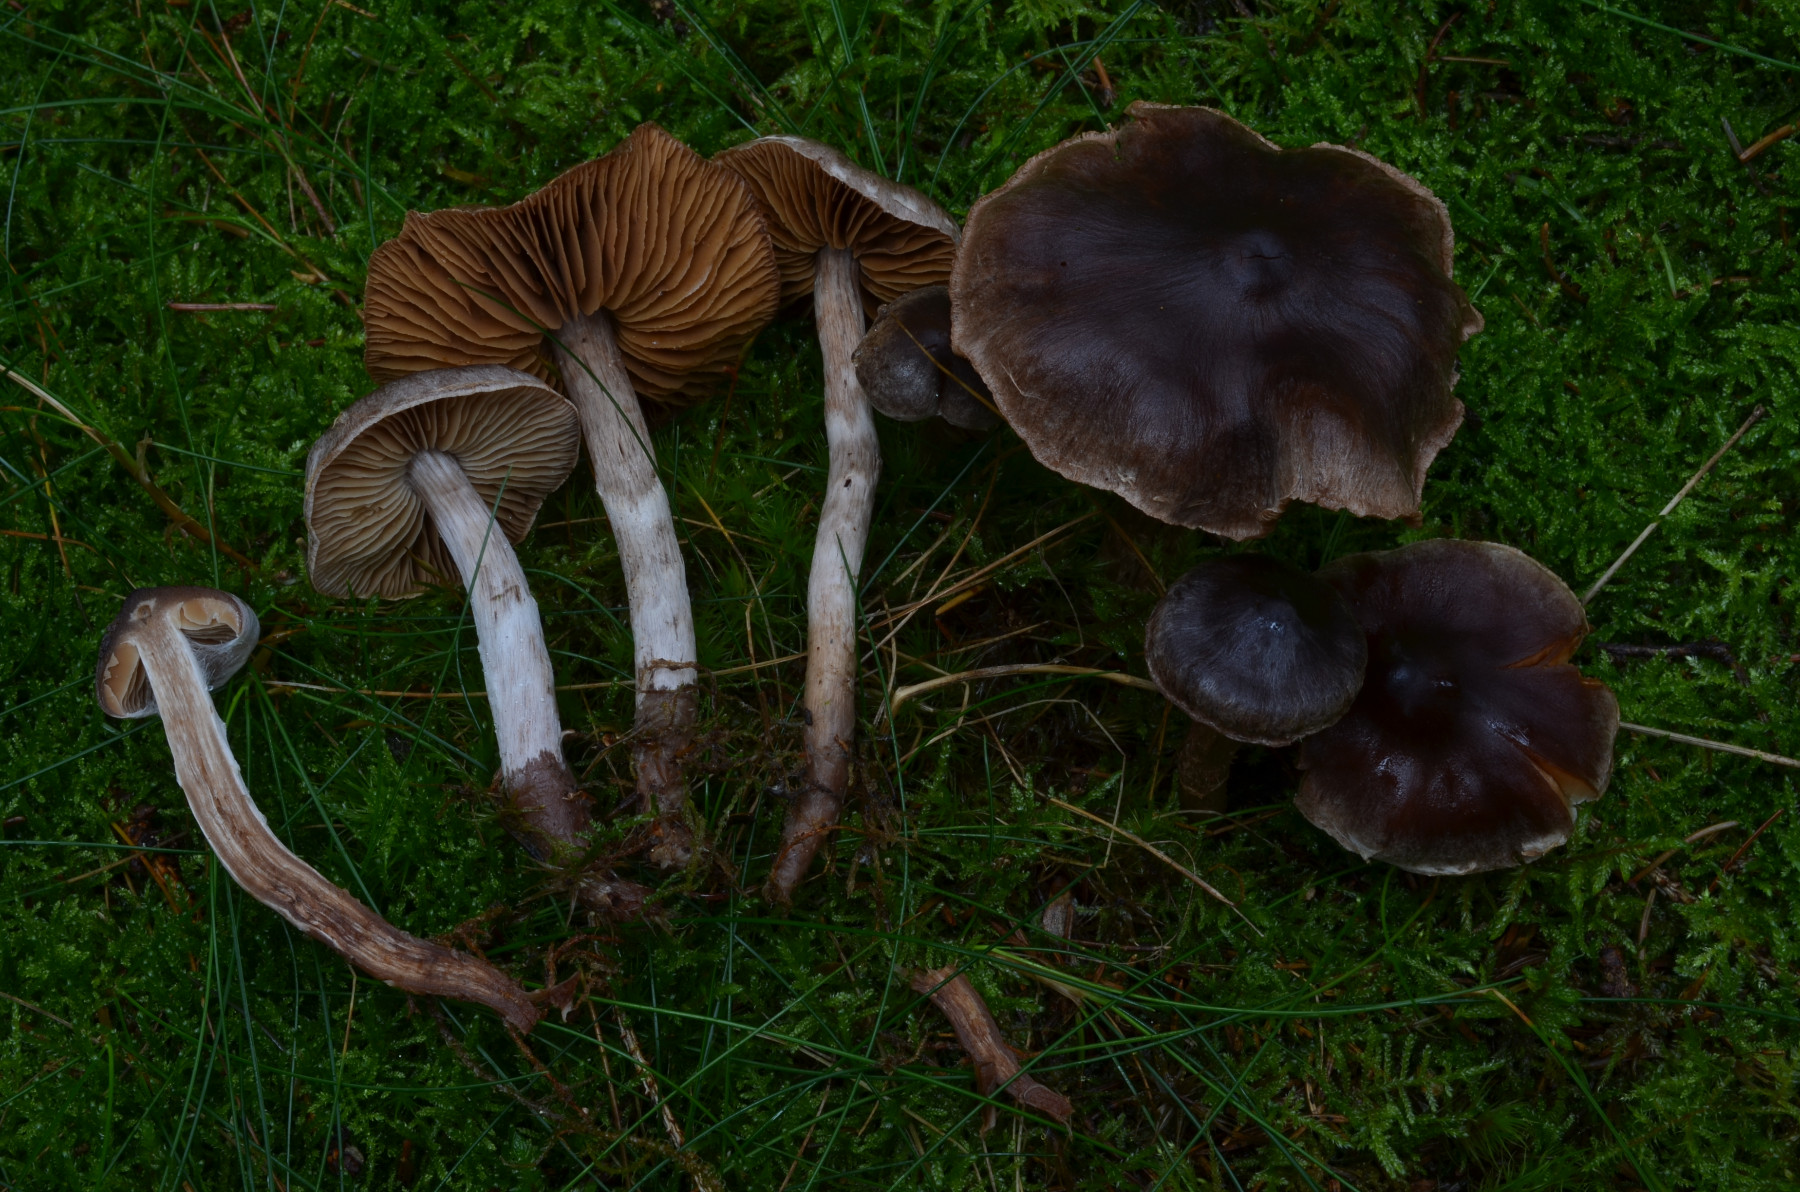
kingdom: Fungi
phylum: Basidiomycota
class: Agaricomycetes
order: Agaricales
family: Cortinariaceae
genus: Cortinarius
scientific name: Cortinarius heterodepressus
